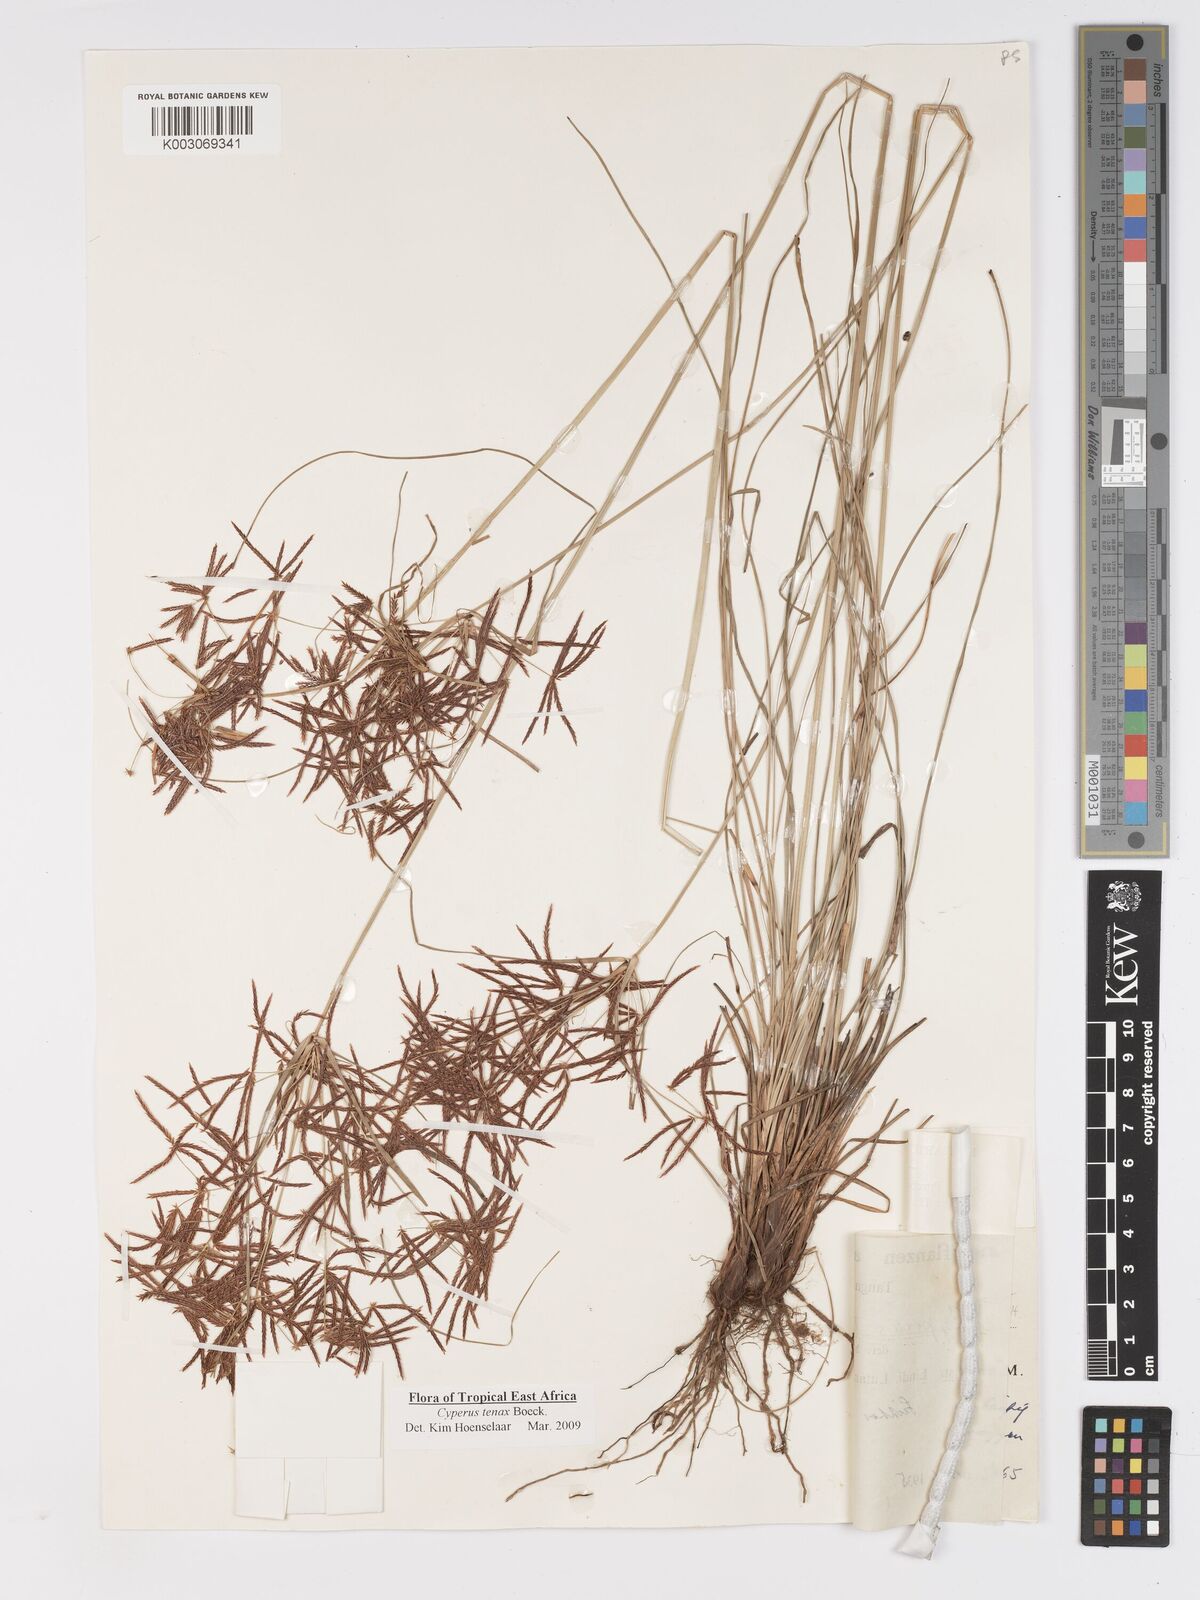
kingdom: Plantae
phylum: Tracheophyta
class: Liliopsida
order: Poales
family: Cyperaceae
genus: Cyperus
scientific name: Cyperus tenax
